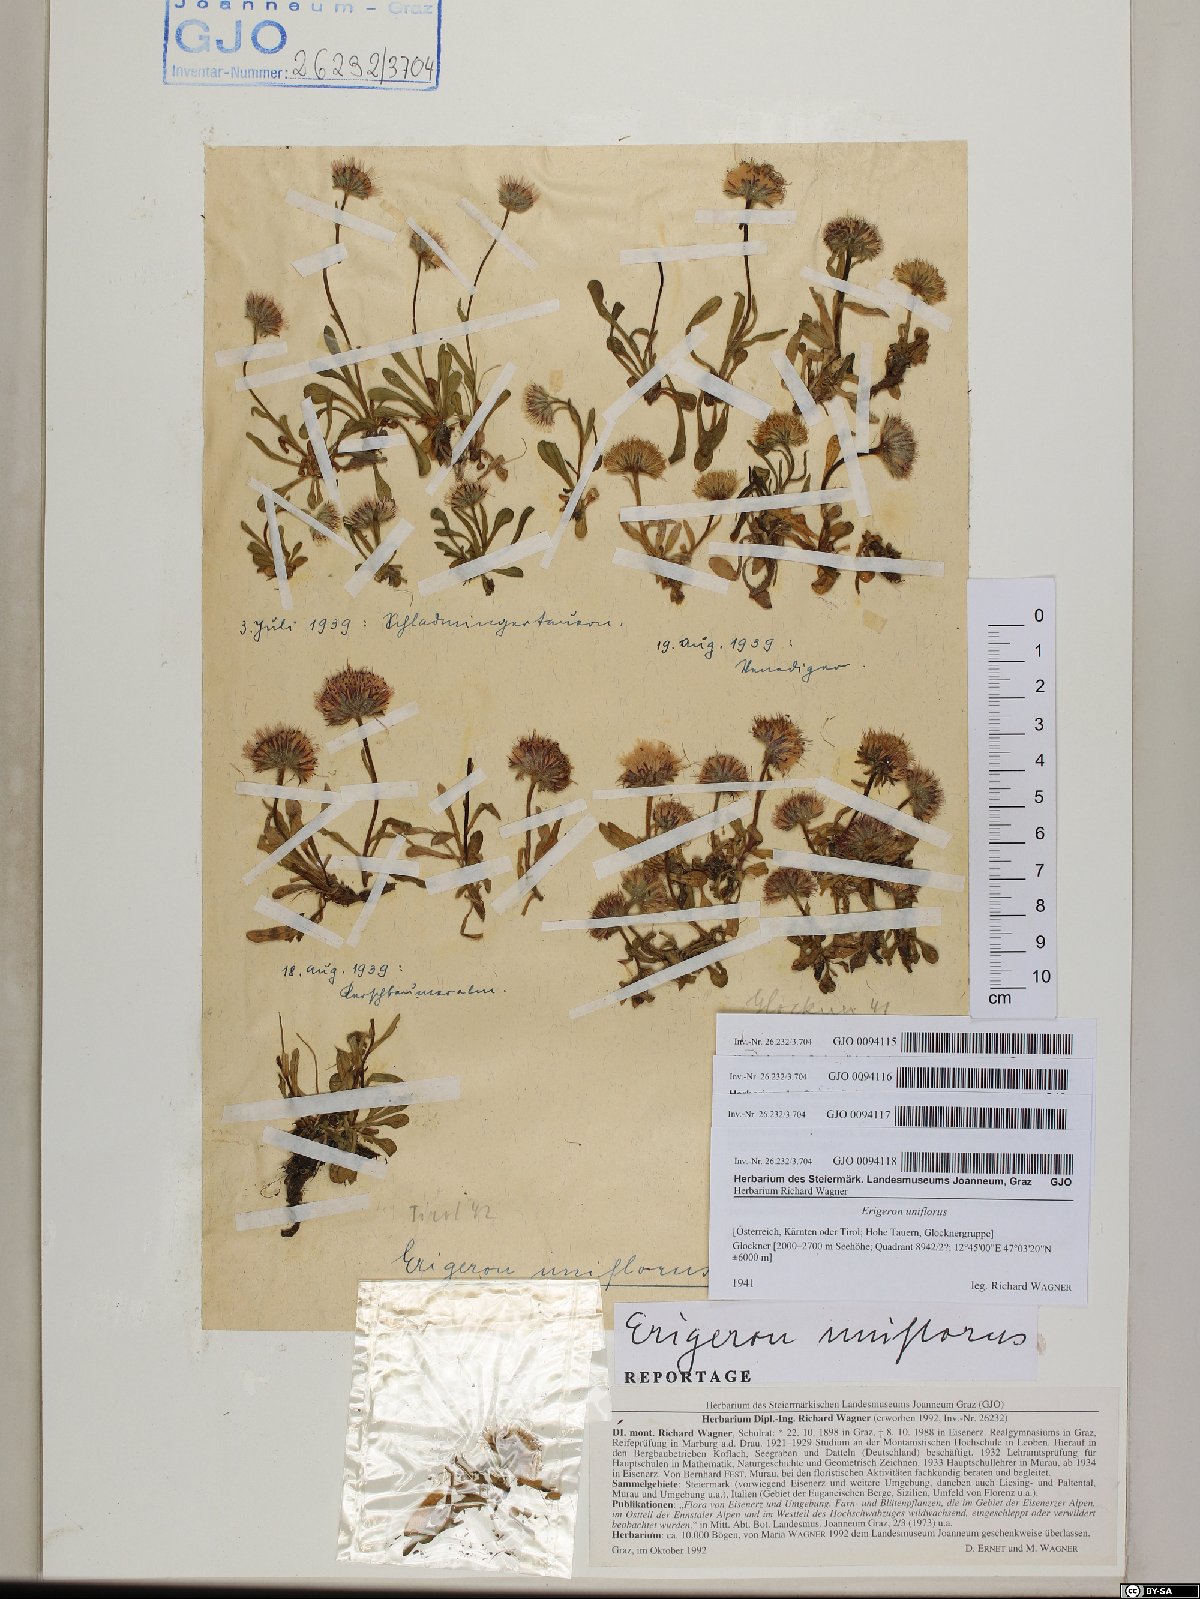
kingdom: Plantae
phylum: Tracheophyta
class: Magnoliopsida
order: Asterales
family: Asteraceae
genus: Erigeron
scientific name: Erigeron uniflorus
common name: Northern daisy
